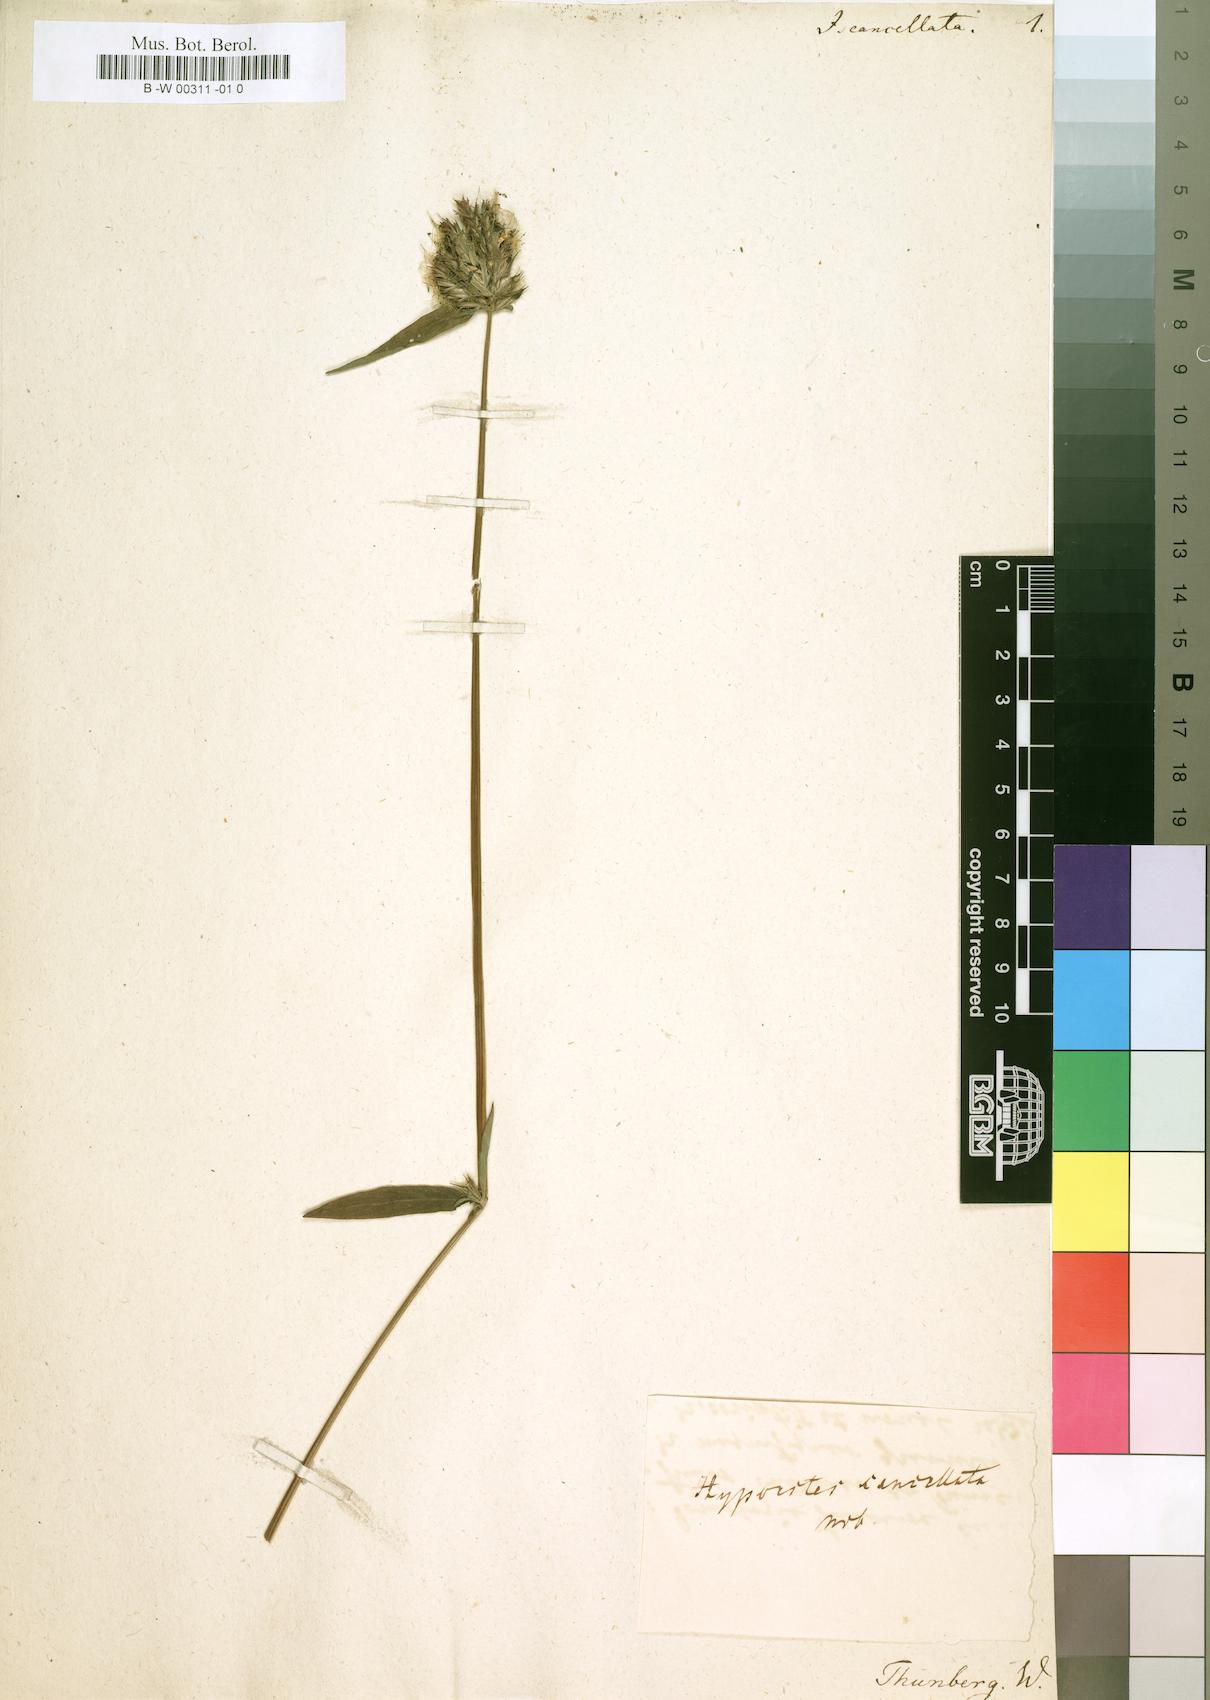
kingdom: Plantae
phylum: Tracheophyta
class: Magnoliopsida
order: Lamiales
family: Acanthaceae
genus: Hypoestes
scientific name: Hypoestes cancellata
